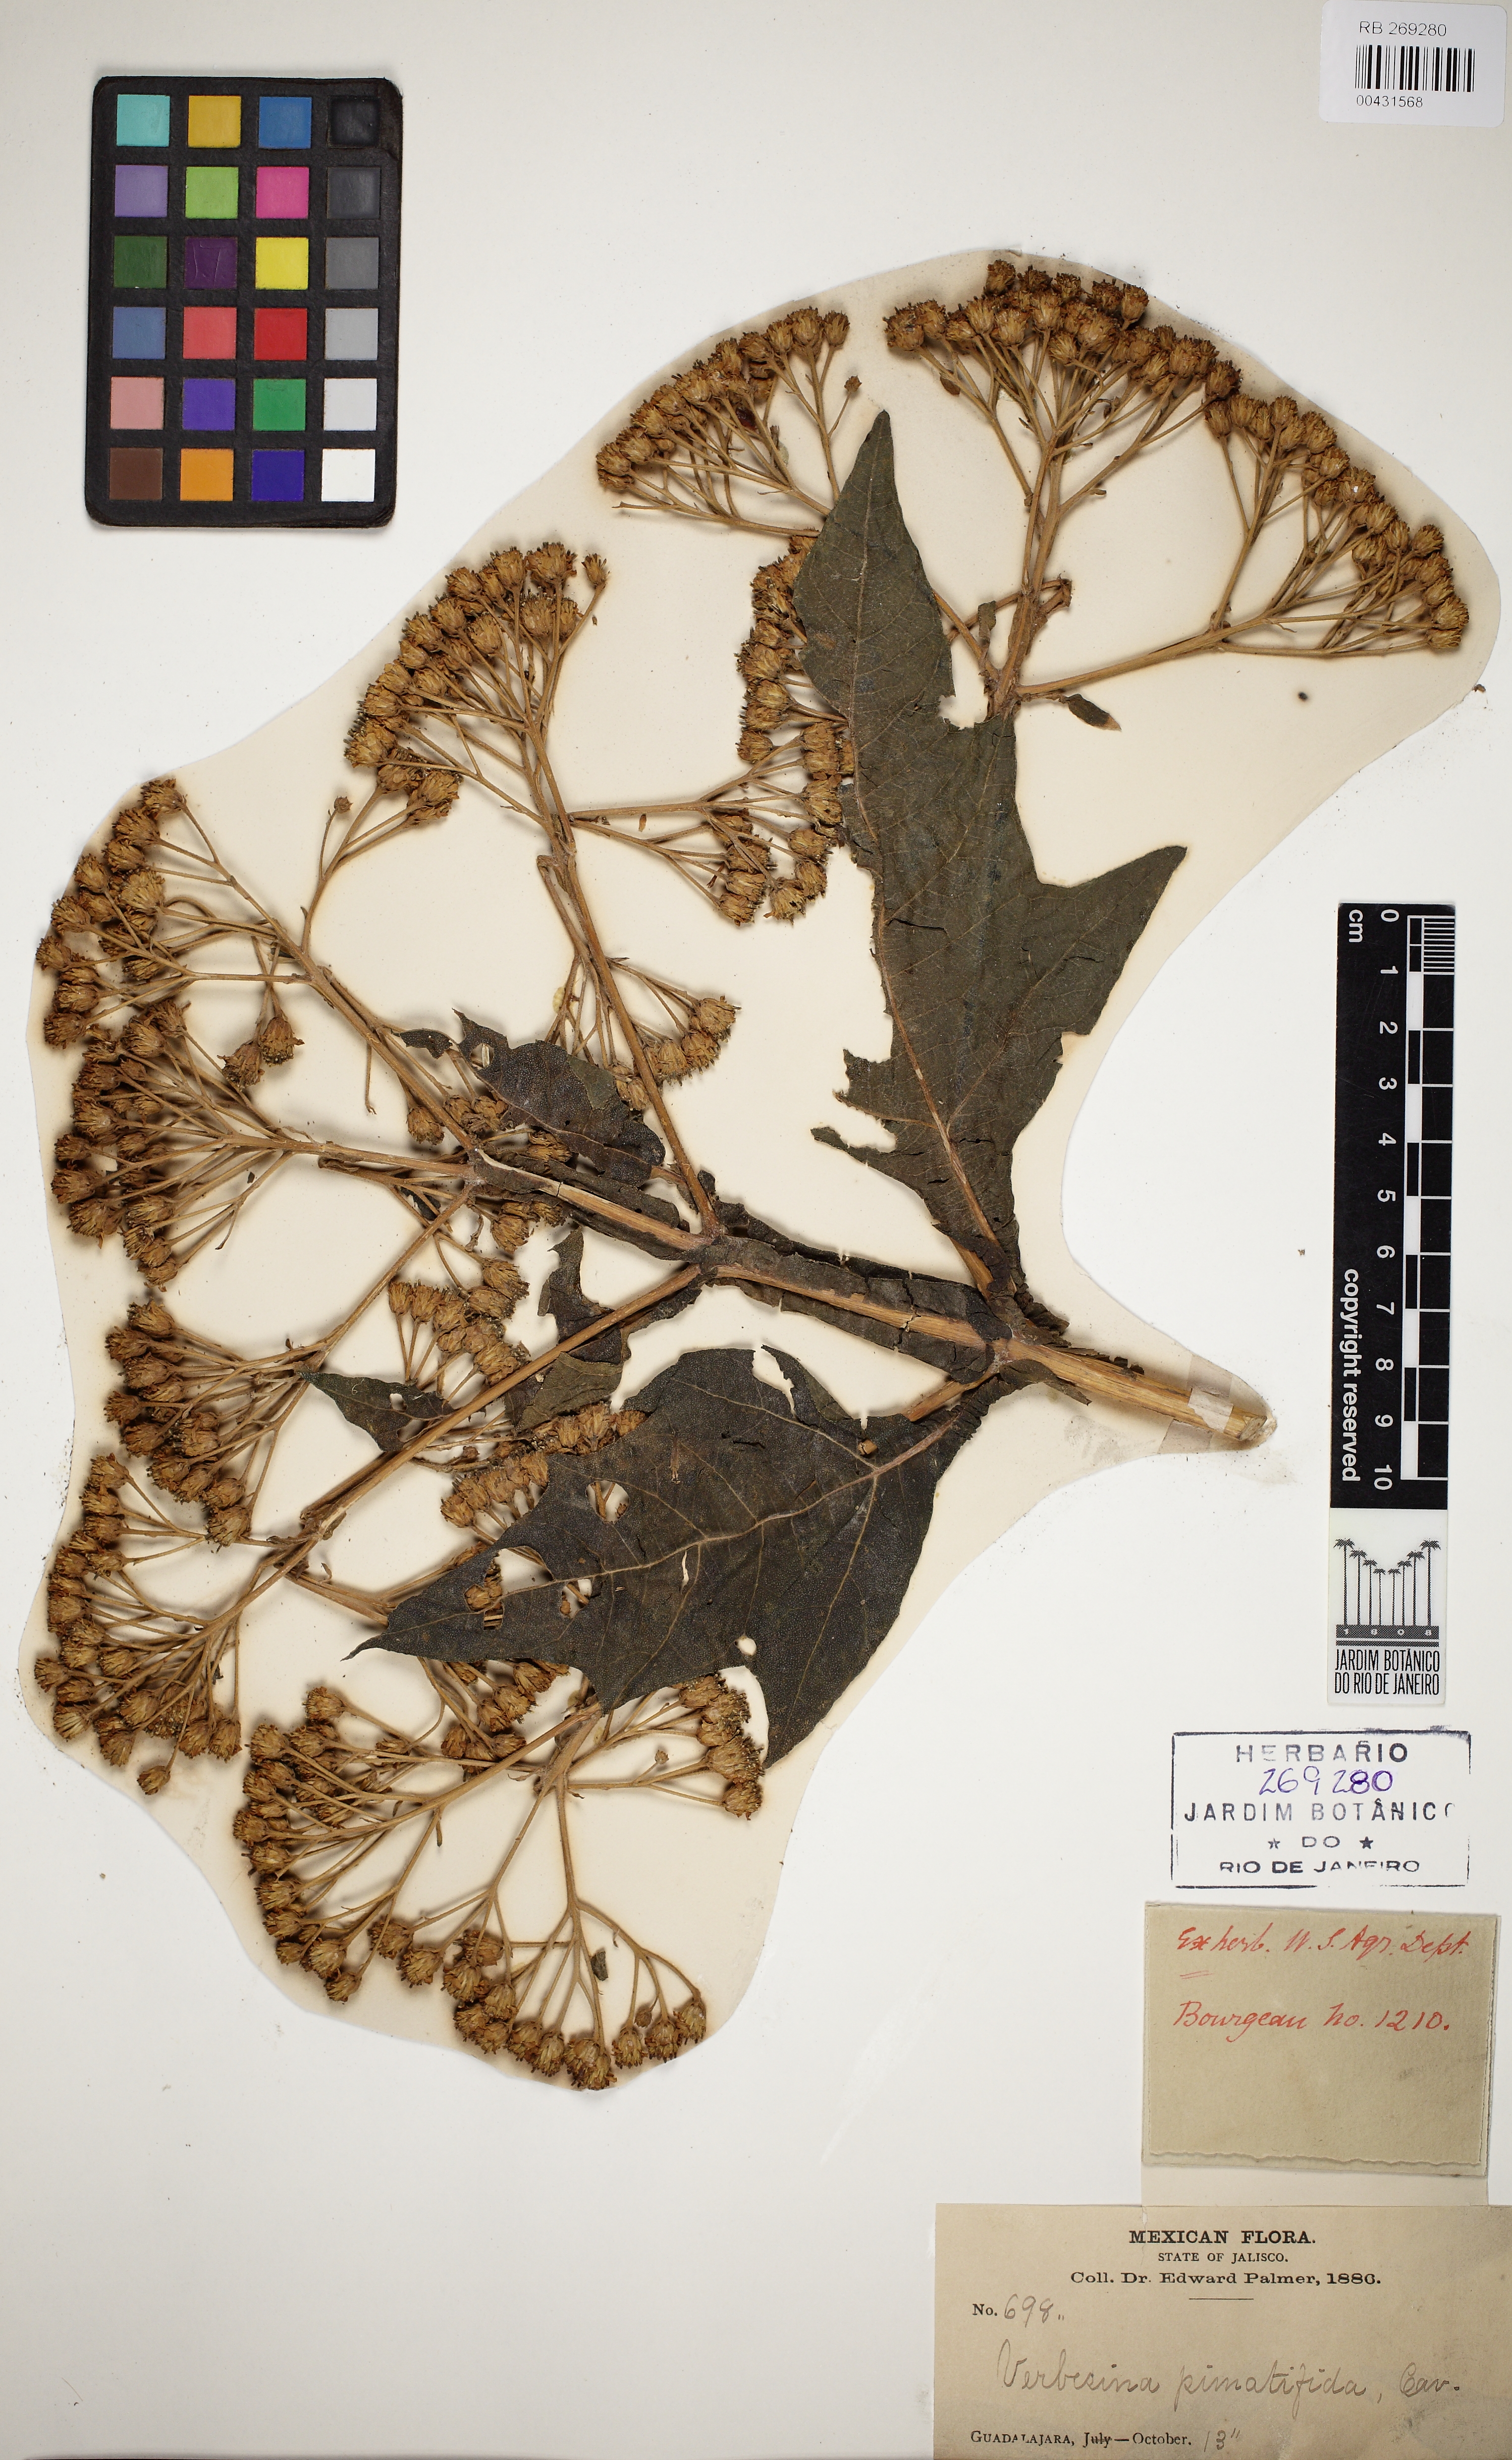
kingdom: Plantae
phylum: Tracheophyta
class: Magnoliopsida
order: Asterales
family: Asteraceae
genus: Verbesina
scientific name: Verbesina fastigiata
